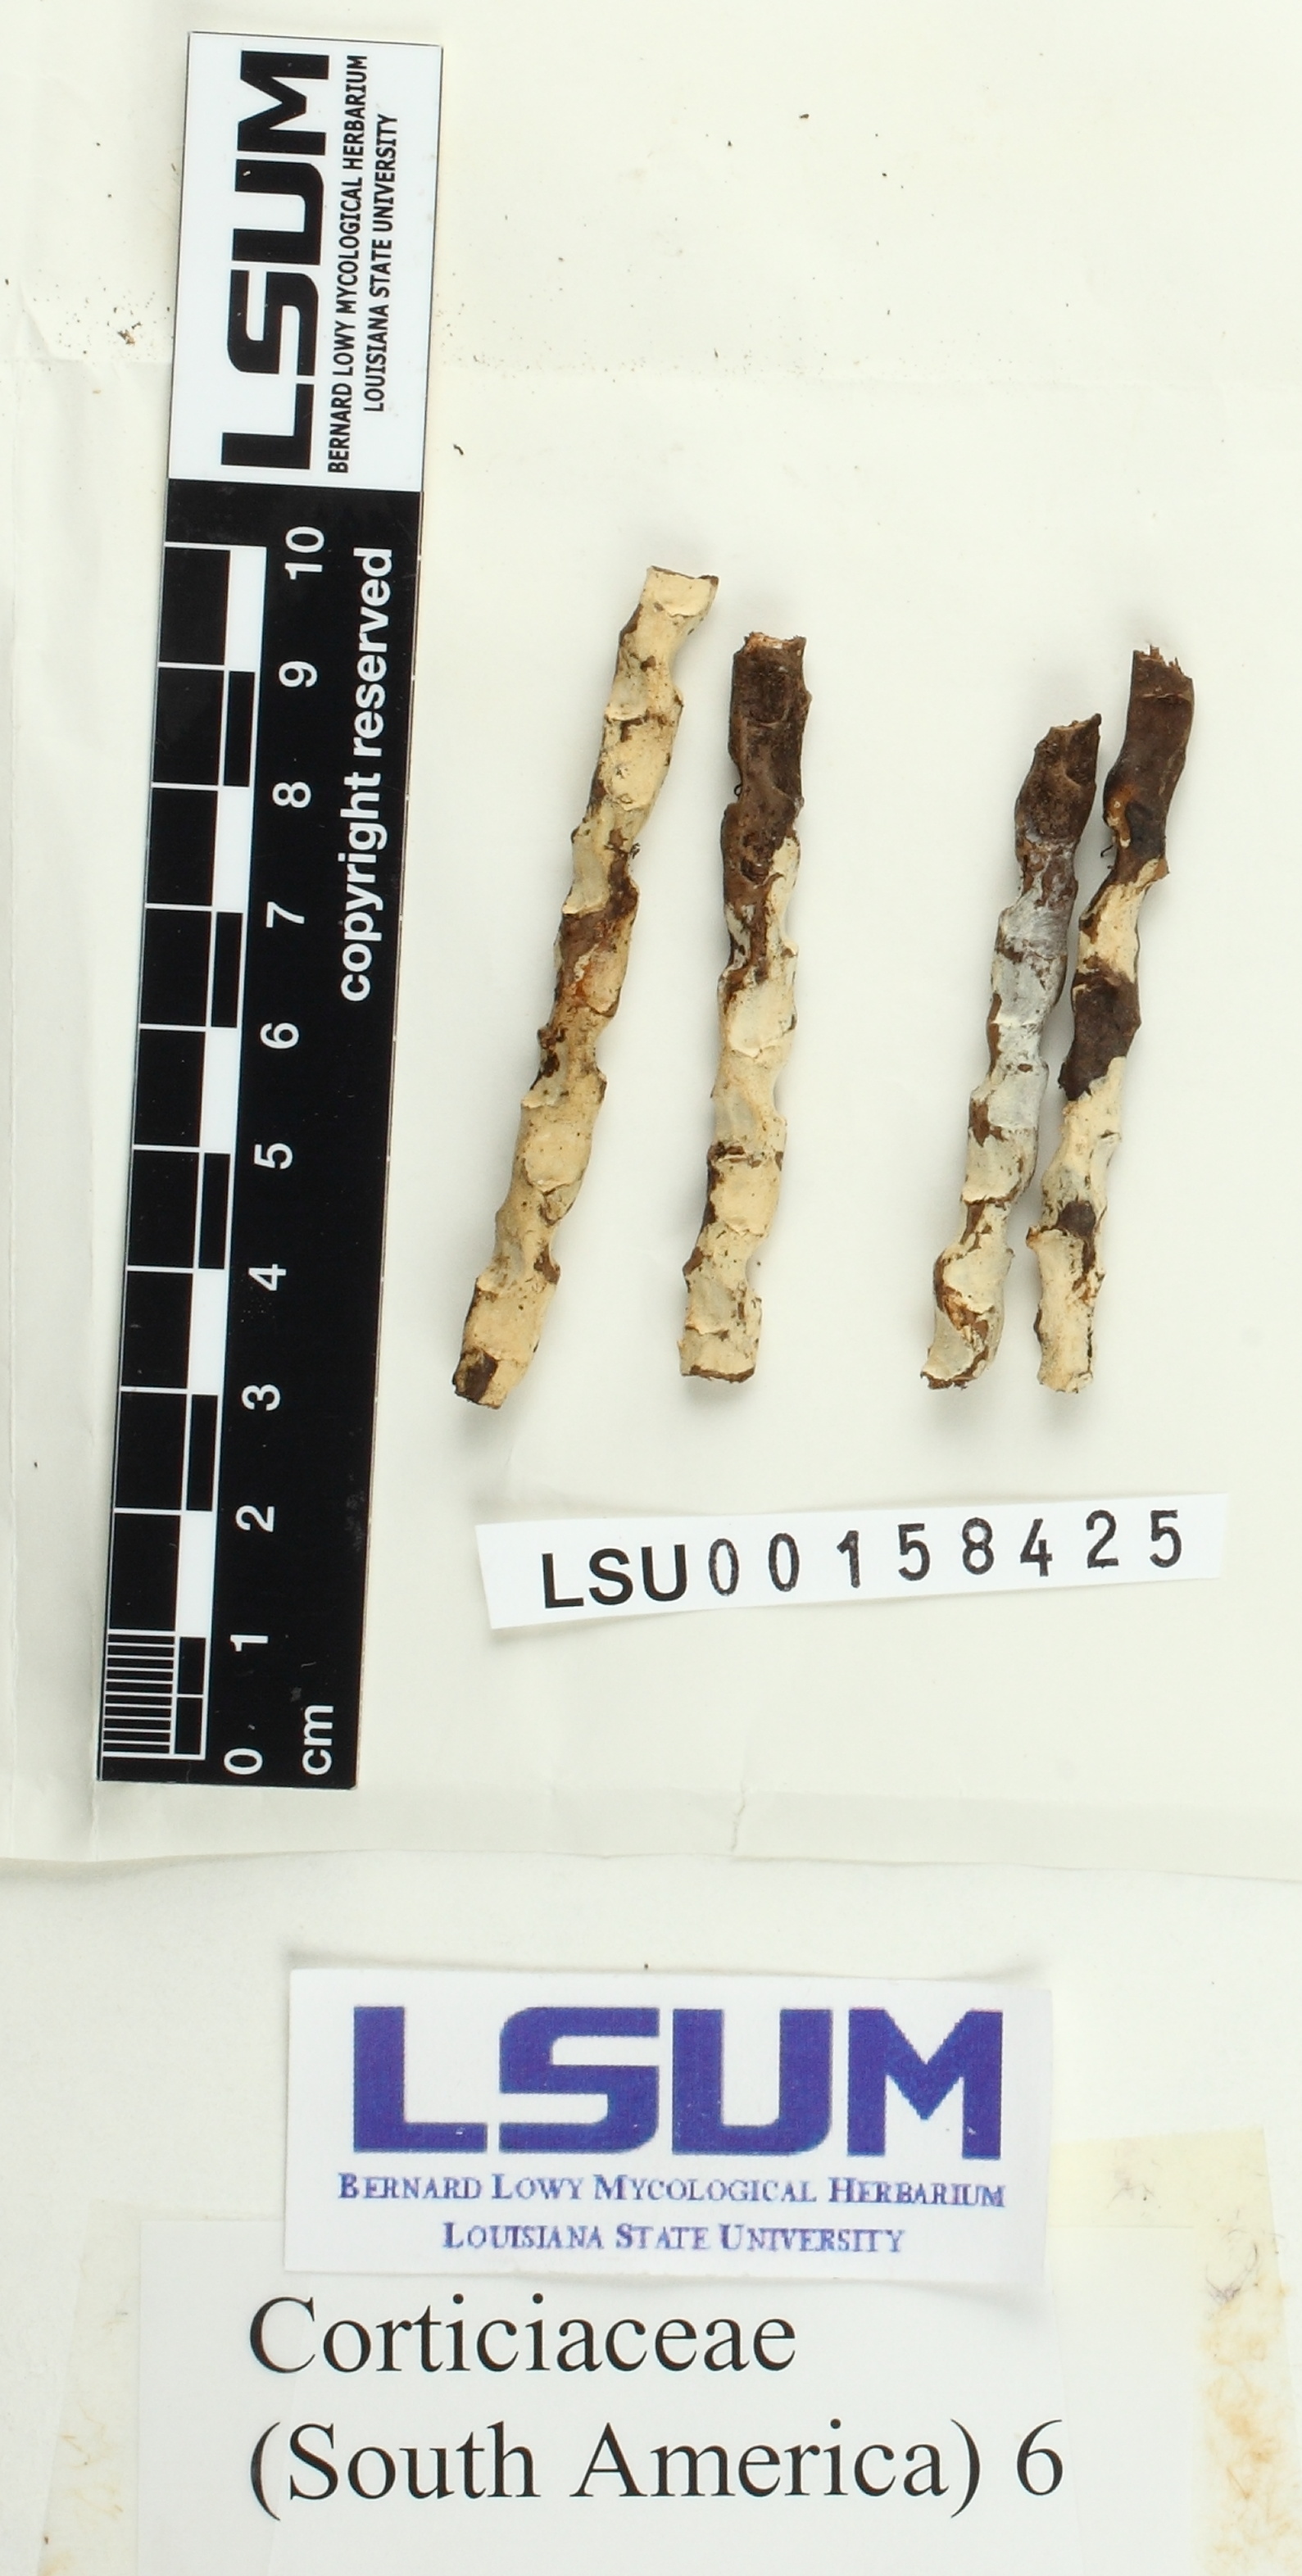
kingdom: Fungi
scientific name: Fungi
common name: Fungi
